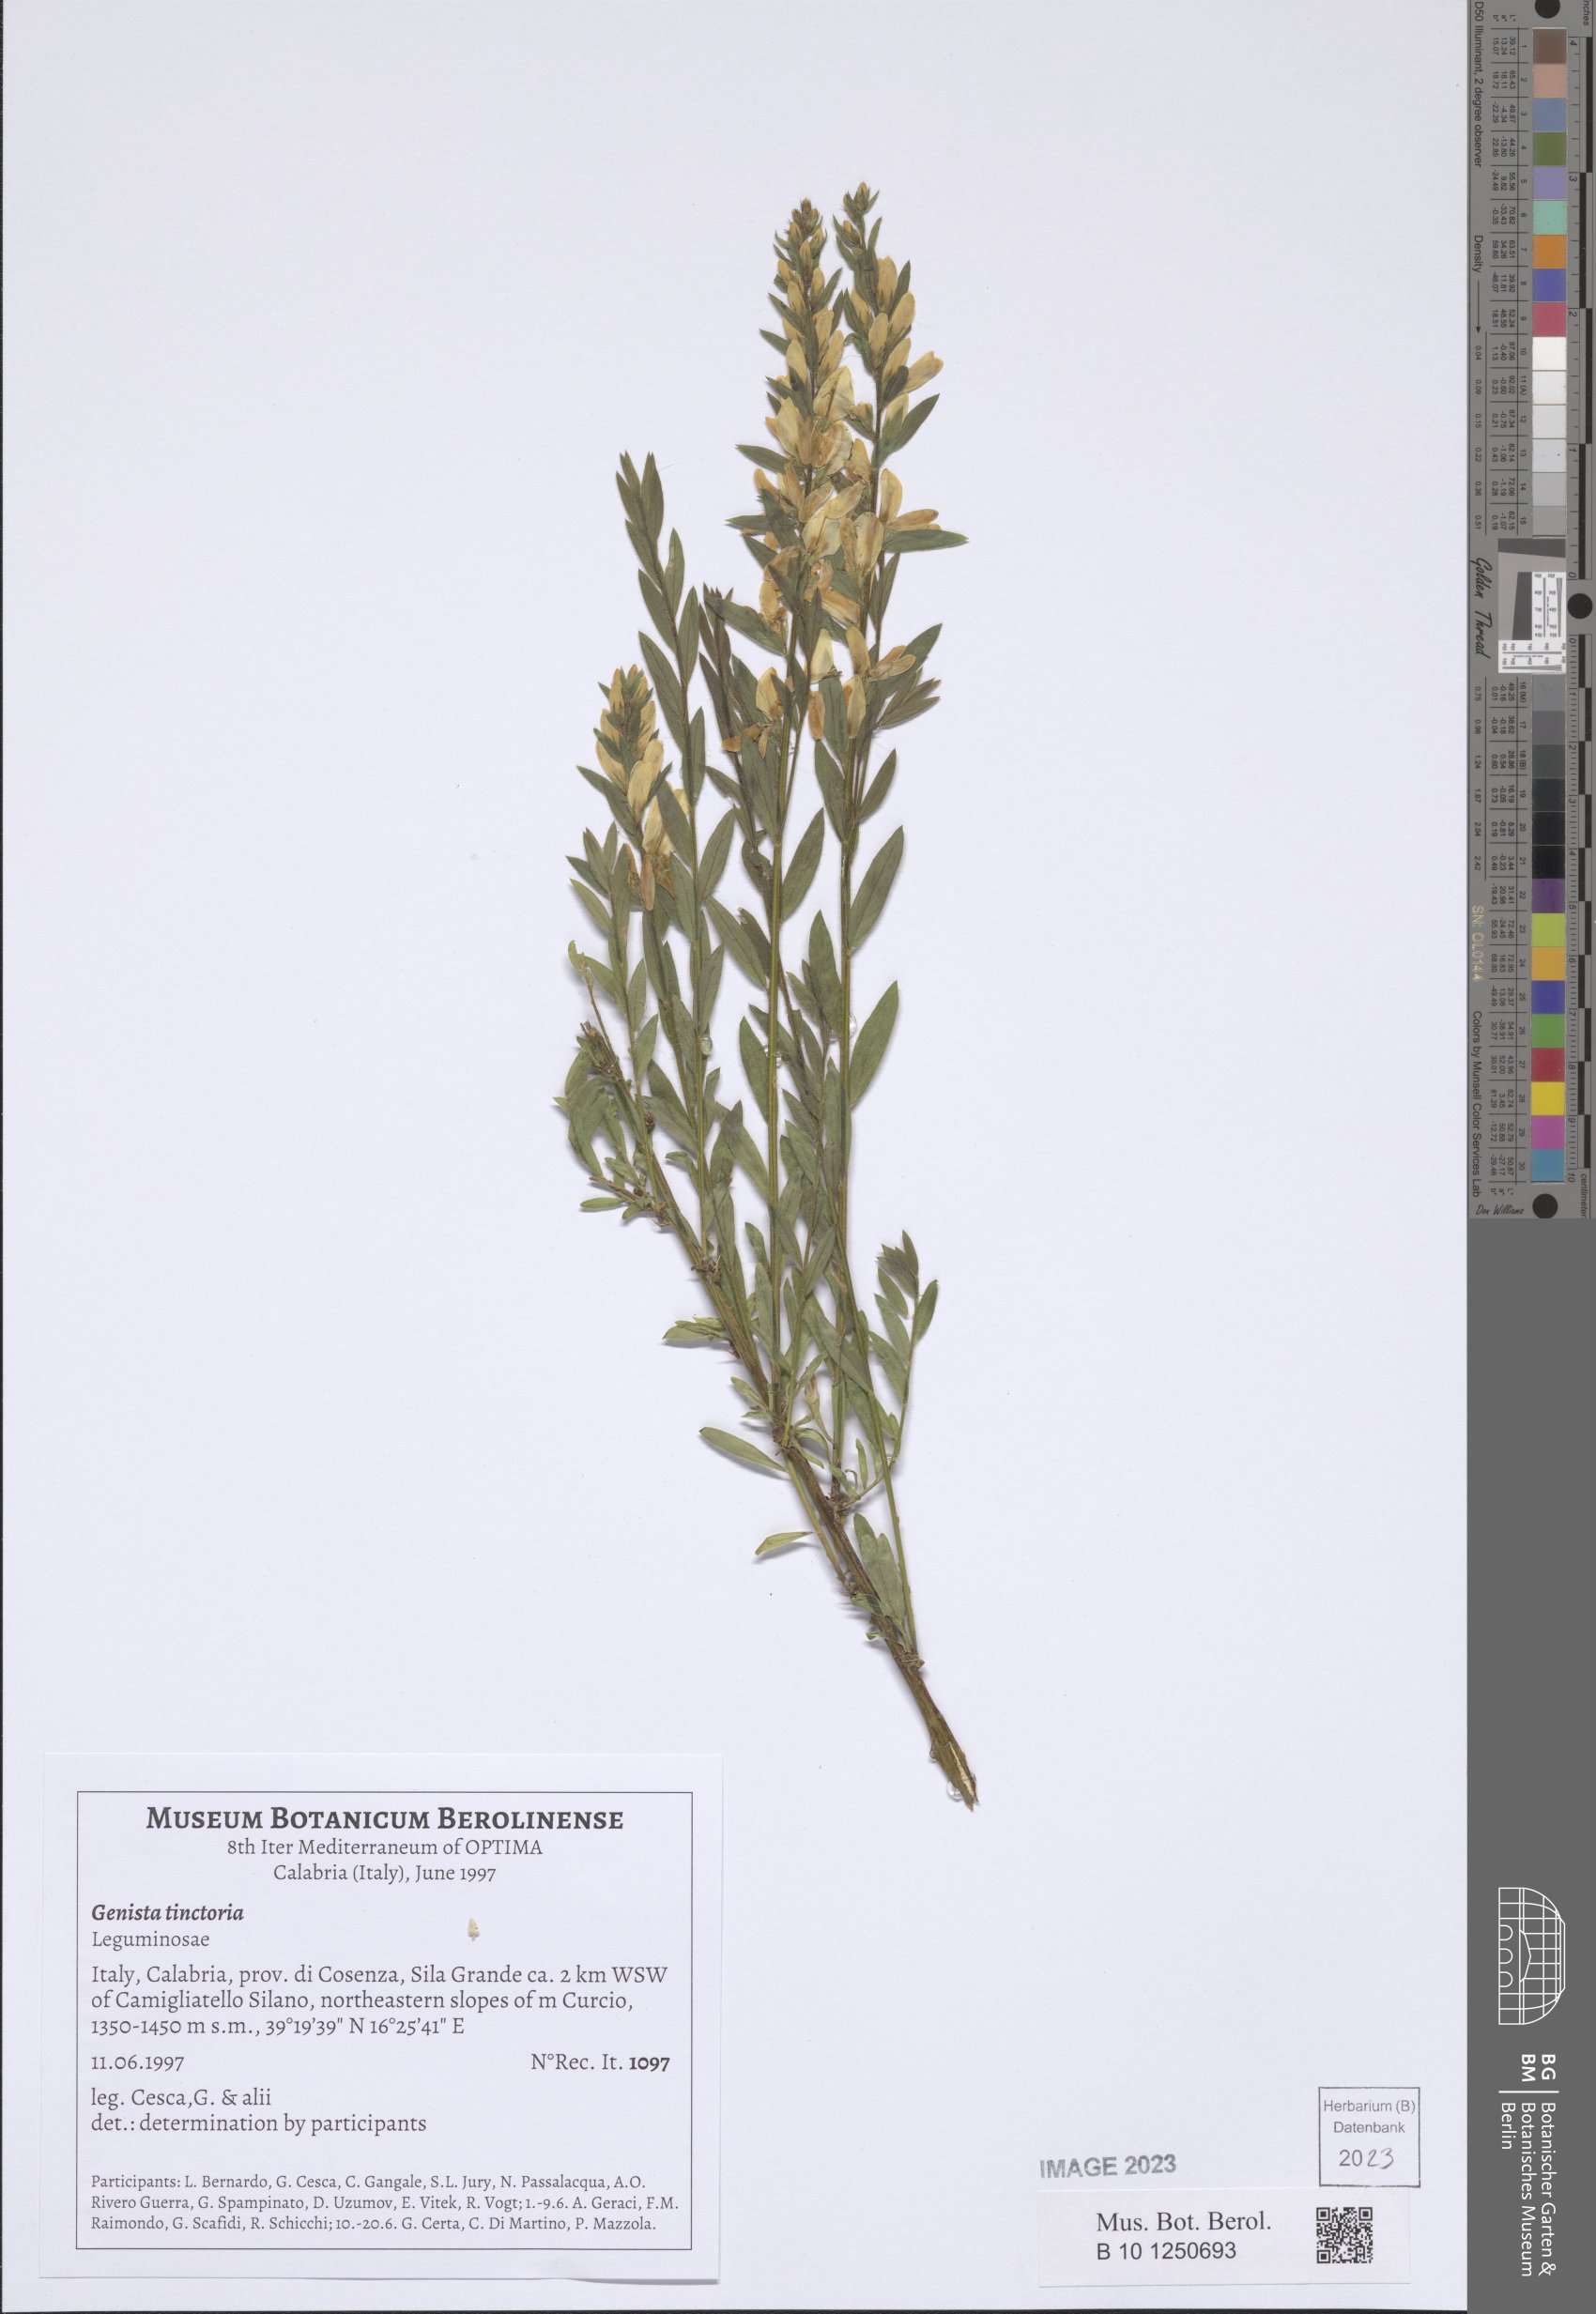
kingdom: Plantae
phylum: Tracheophyta
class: Magnoliopsida
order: Fabales
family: Fabaceae
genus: Genista
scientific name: Genista tinctoria
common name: Dyer's greenweed
